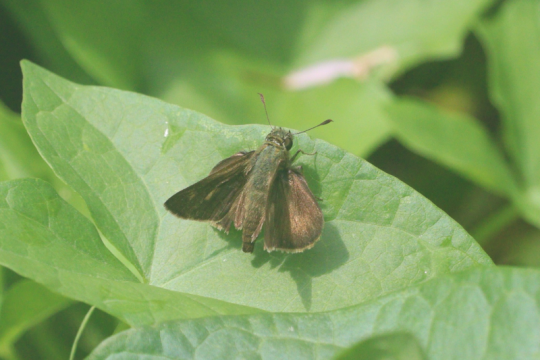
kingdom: Animalia
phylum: Arthropoda
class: Insecta
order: Lepidoptera
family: Hesperiidae
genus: Polites
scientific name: Polites egeremet
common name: Northern Broken-Dash
